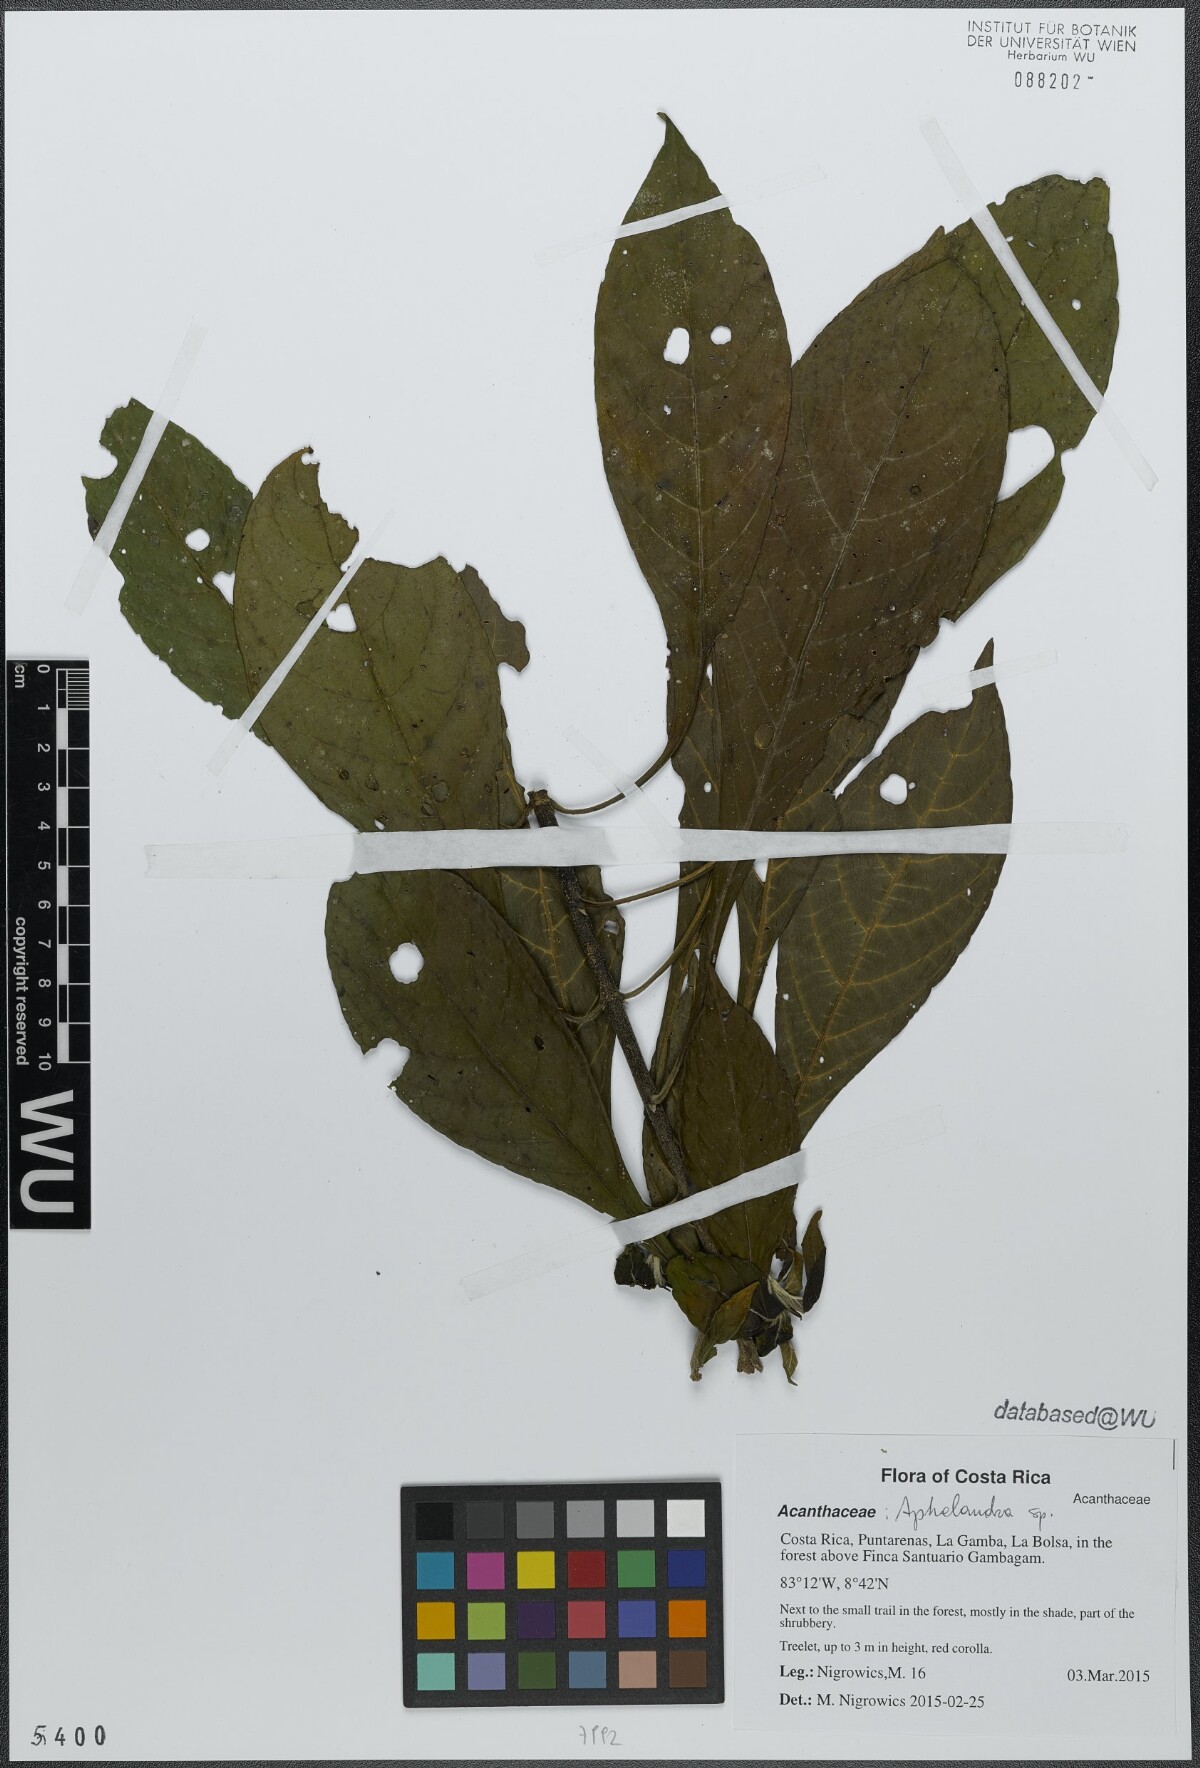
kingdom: Plantae
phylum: Tracheophyta
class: Magnoliopsida
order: Lamiales
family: Acanthaceae
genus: Aphelandra
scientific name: Aphelandra golfodulcensis
